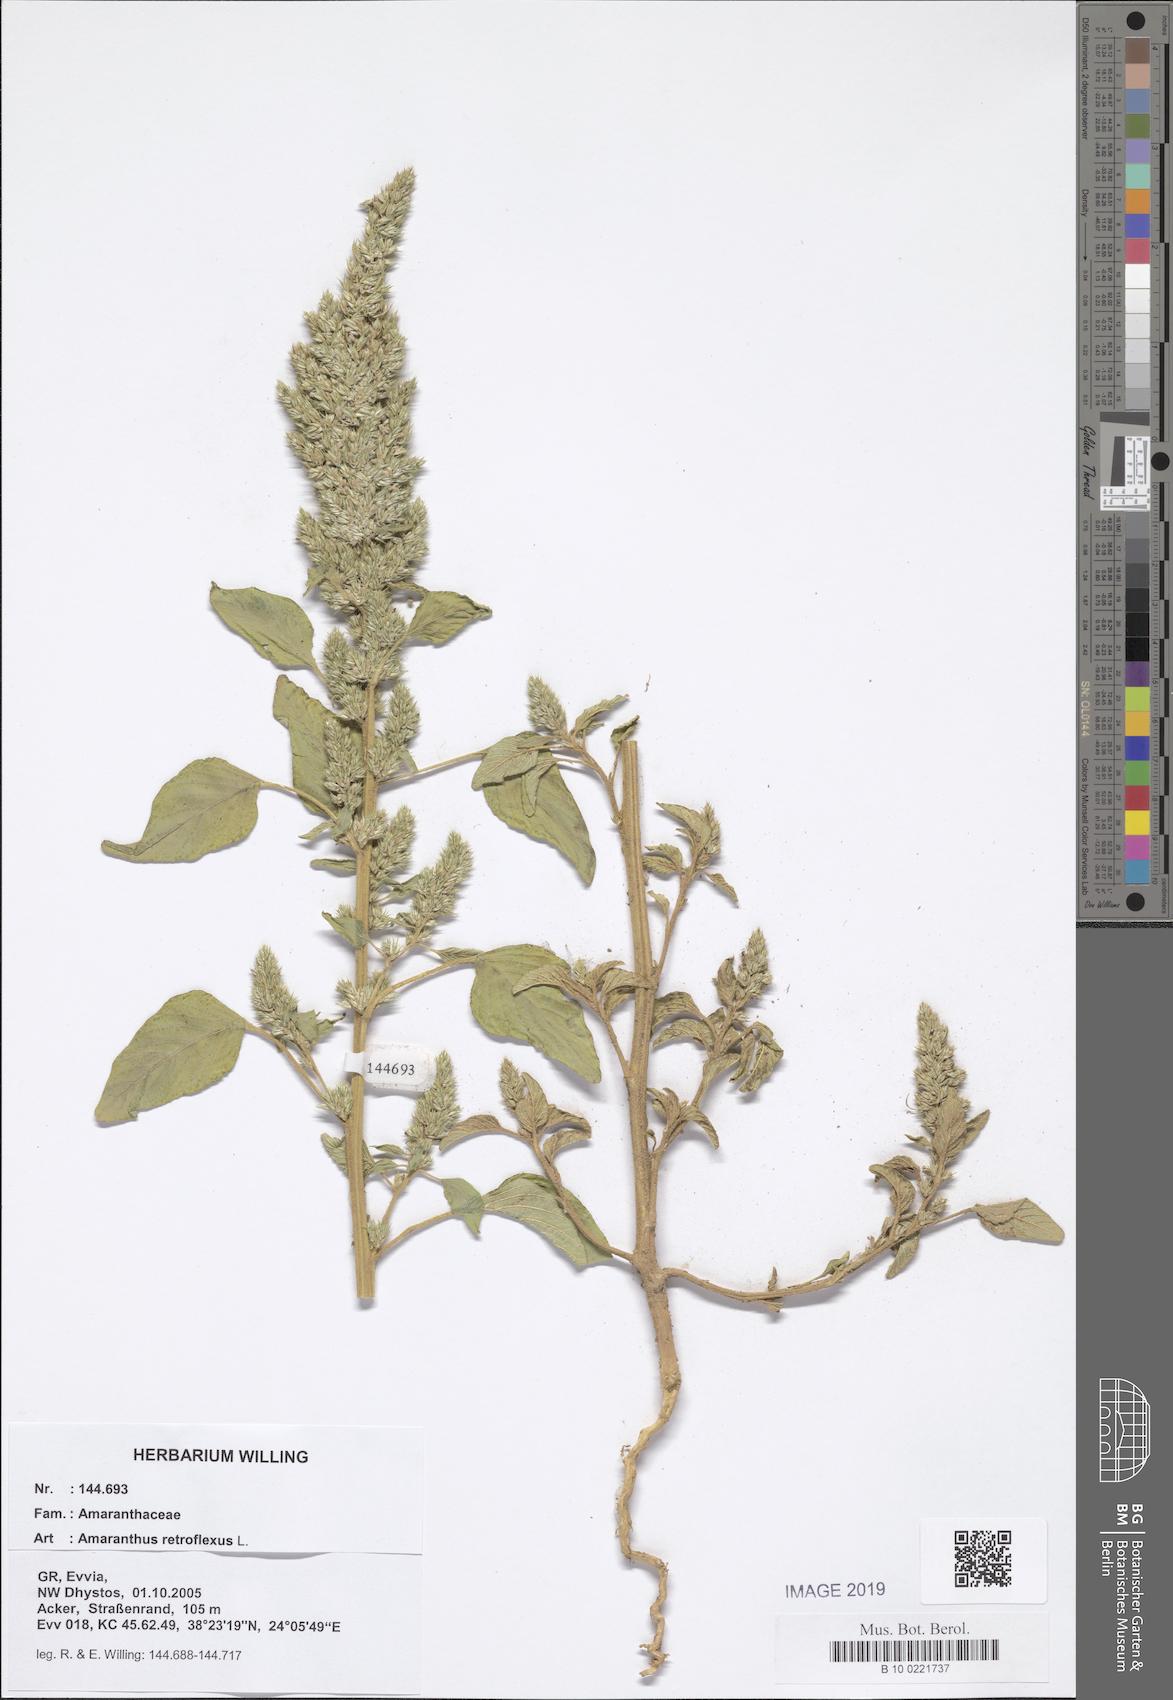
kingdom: Plantae
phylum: Tracheophyta
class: Magnoliopsida
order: Caryophyllales
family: Amaranthaceae
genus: Amaranthus
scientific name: Amaranthus retroflexus
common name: Redroot amaranth
